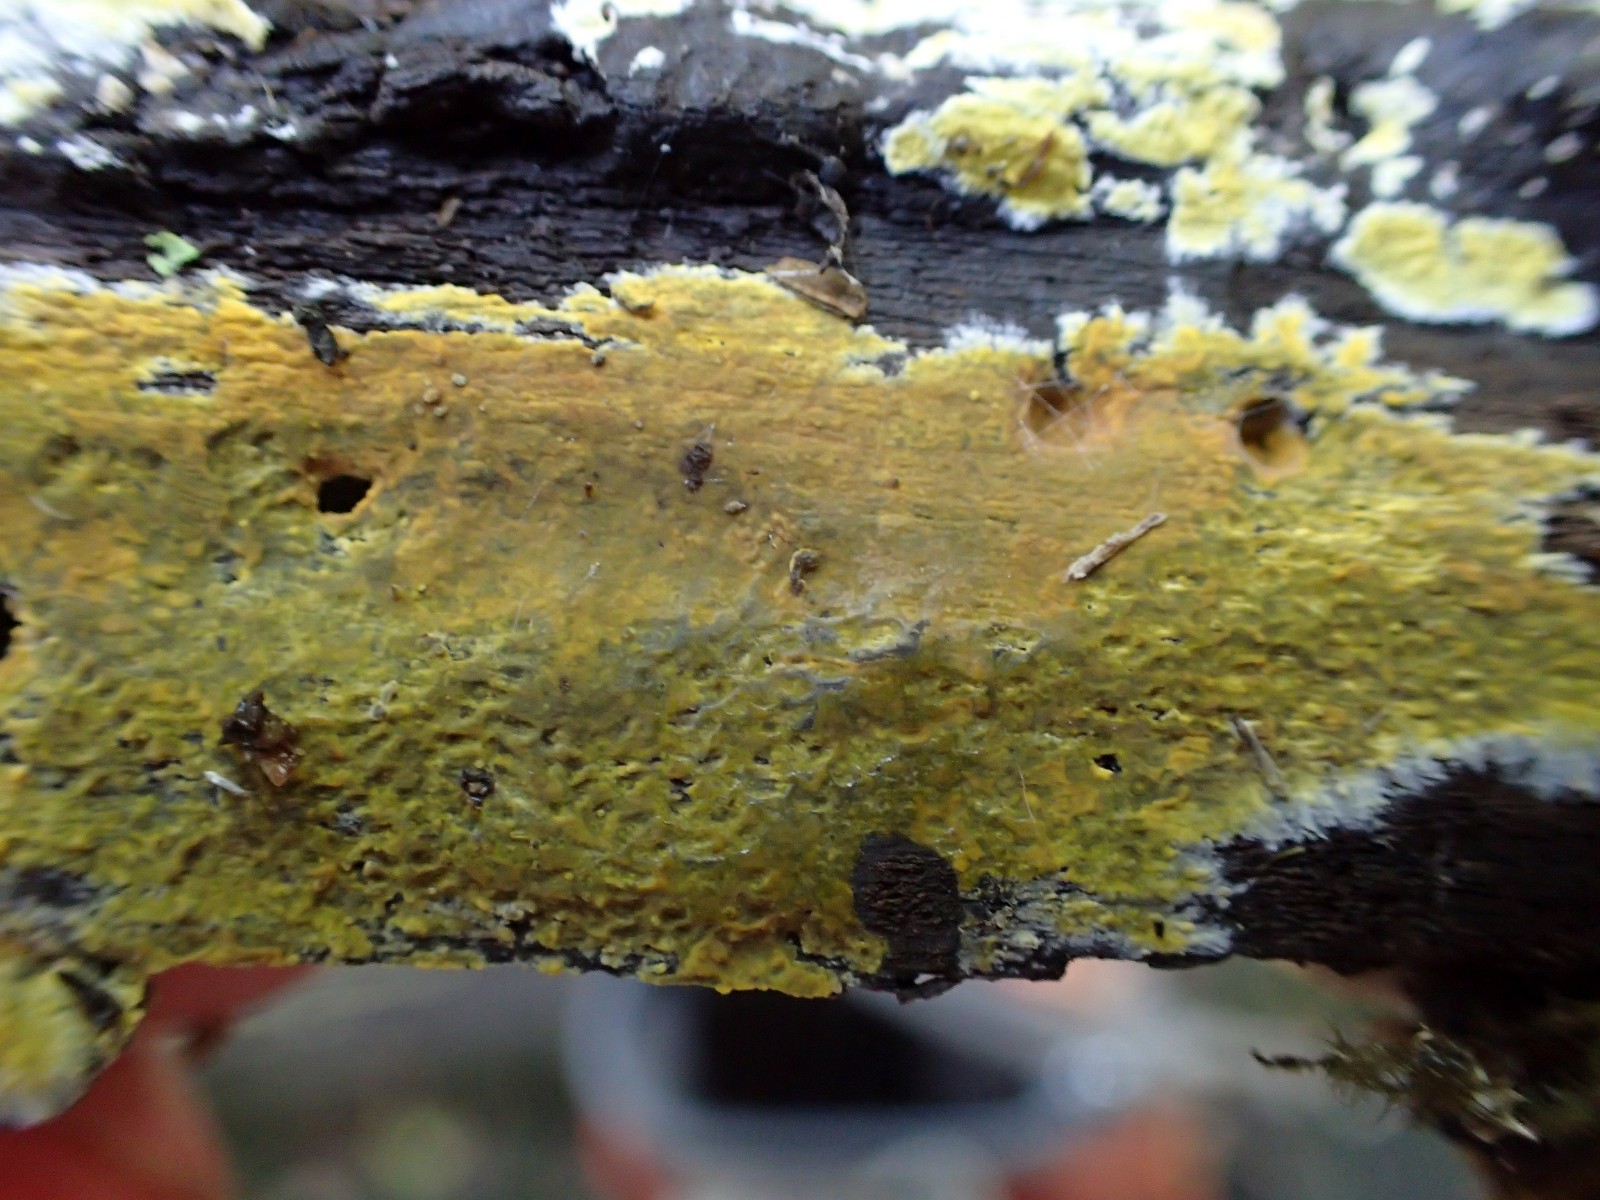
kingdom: Fungi
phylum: Basidiomycota
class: Agaricomycetes
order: Polyporales
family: Meruliaceae
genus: Phlebiodontia
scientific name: Phlebiodontia subochracea
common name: svovl-åresvamp
